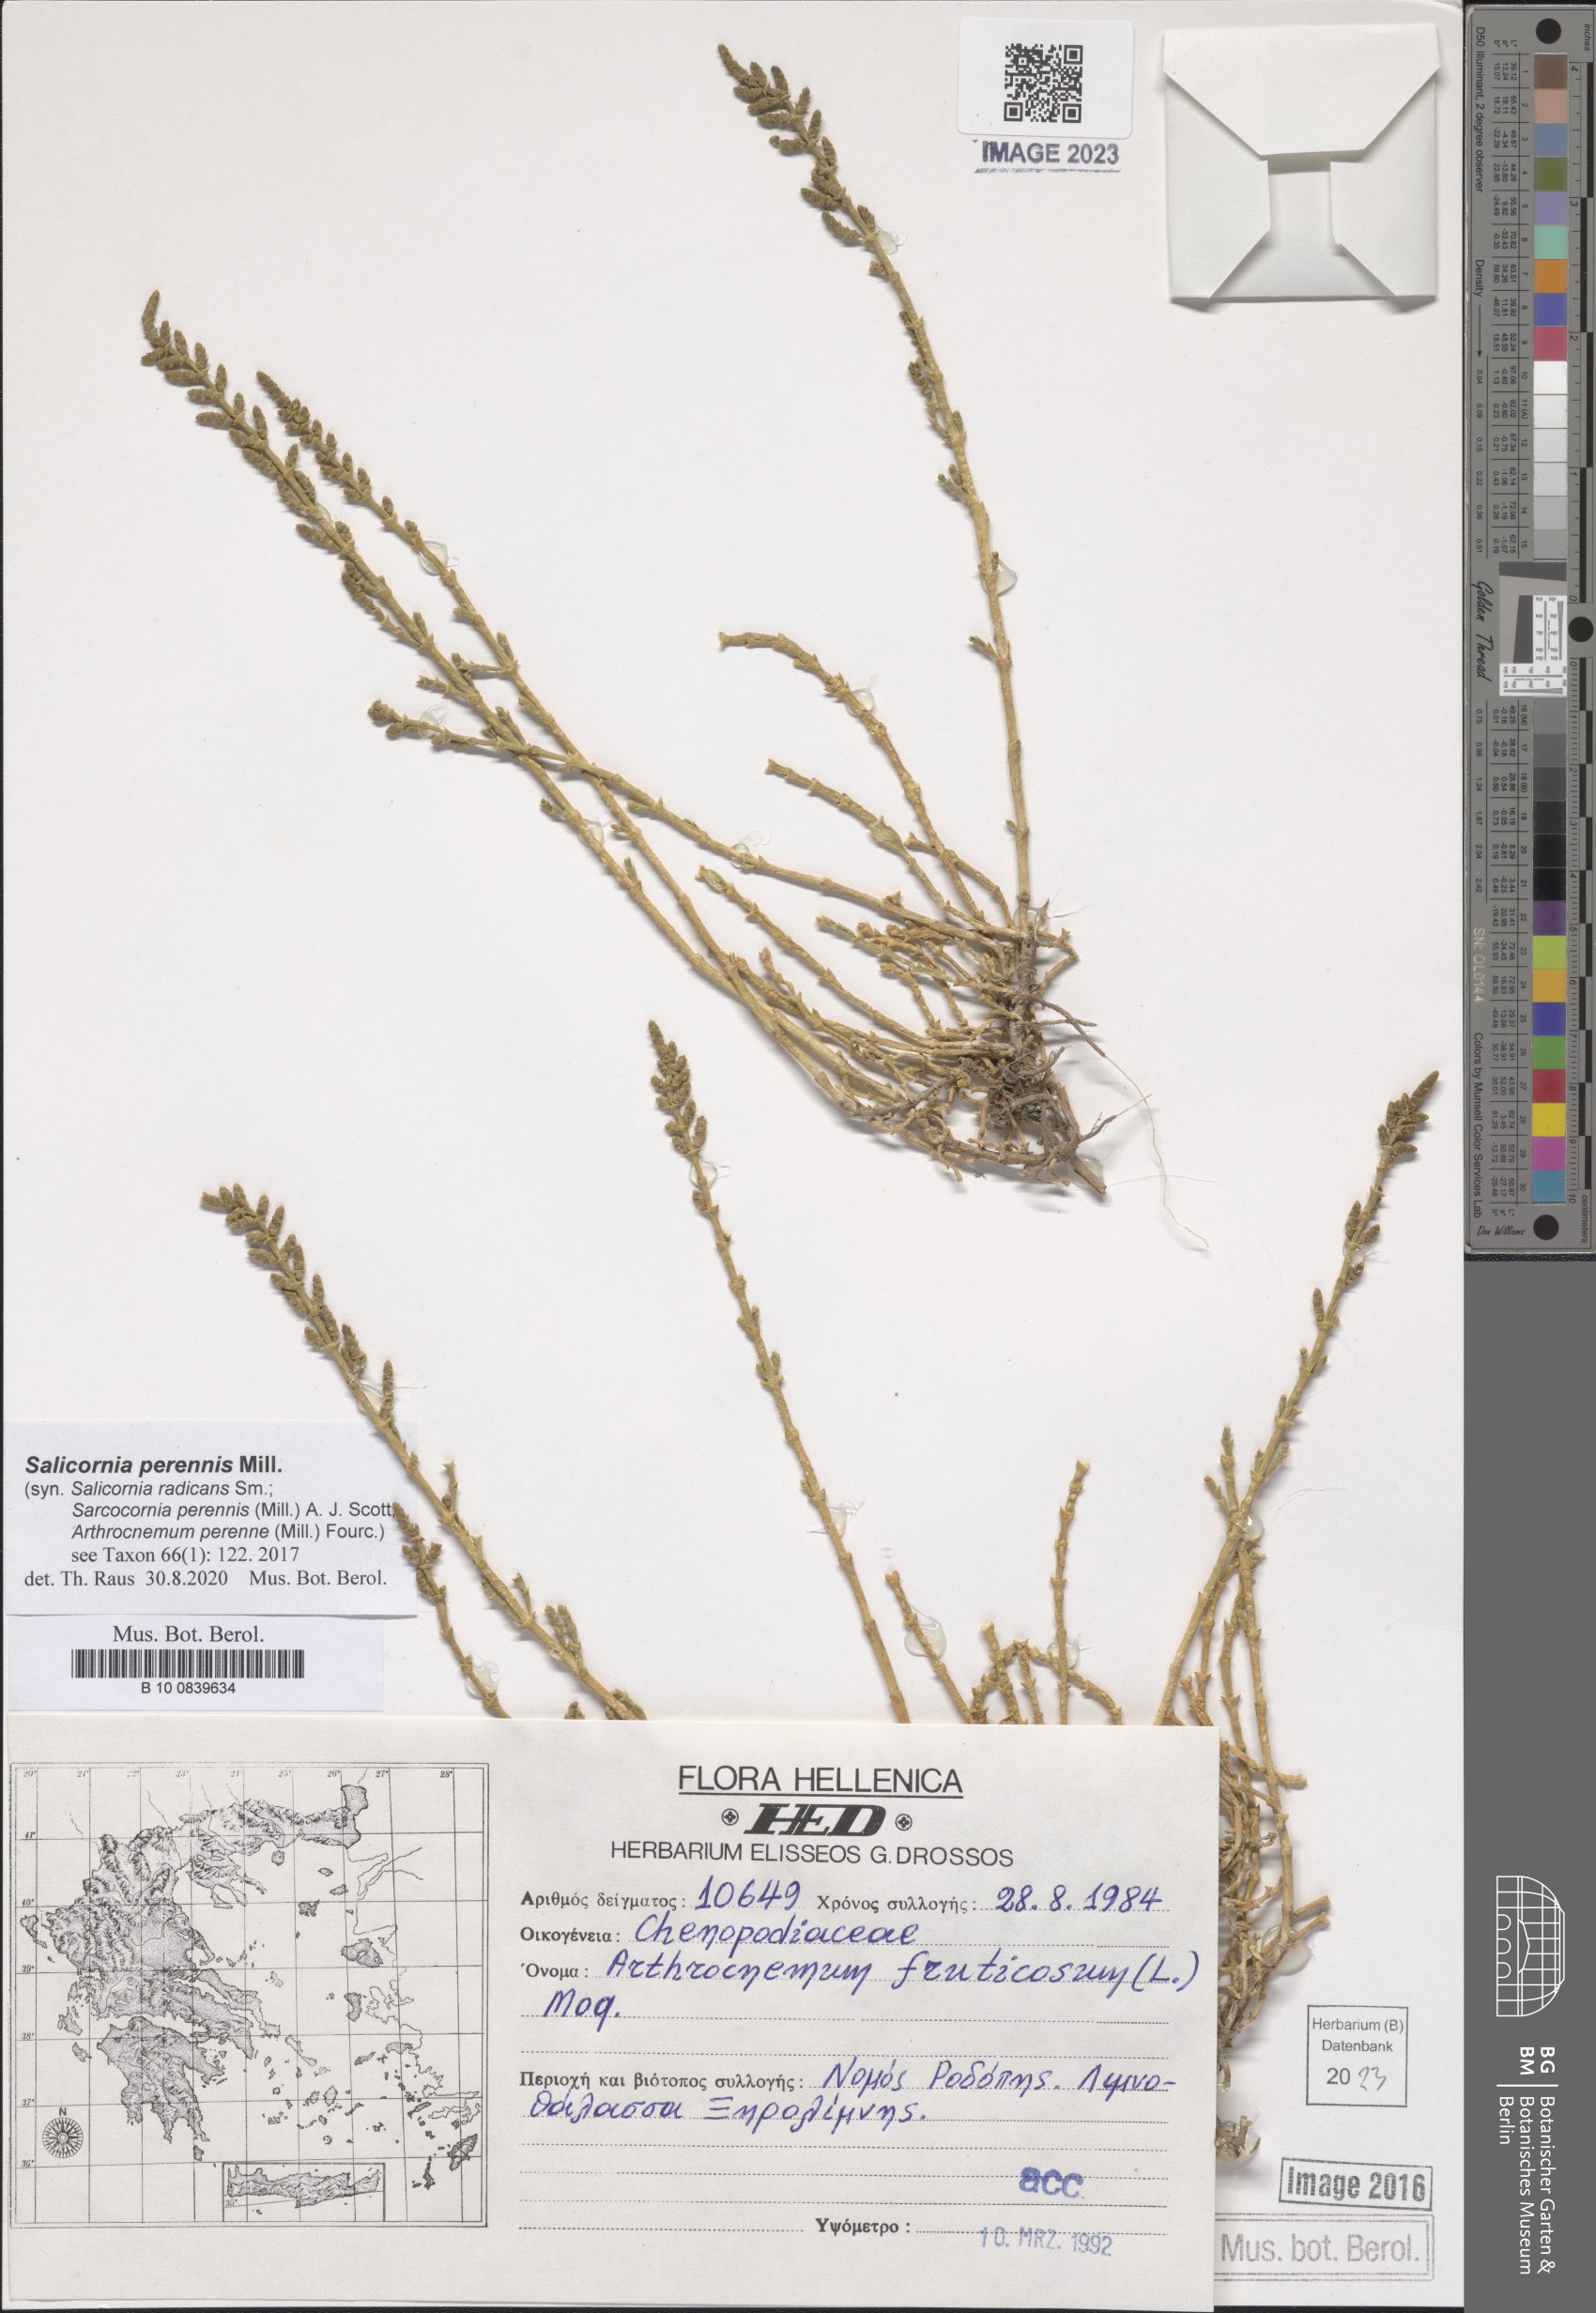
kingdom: Plantae
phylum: Tracheophyta
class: Magnoliopsida
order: Caryophyllales
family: Amaranthaceae
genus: Salicornia
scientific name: Salicornia perennis
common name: Chicken claws
